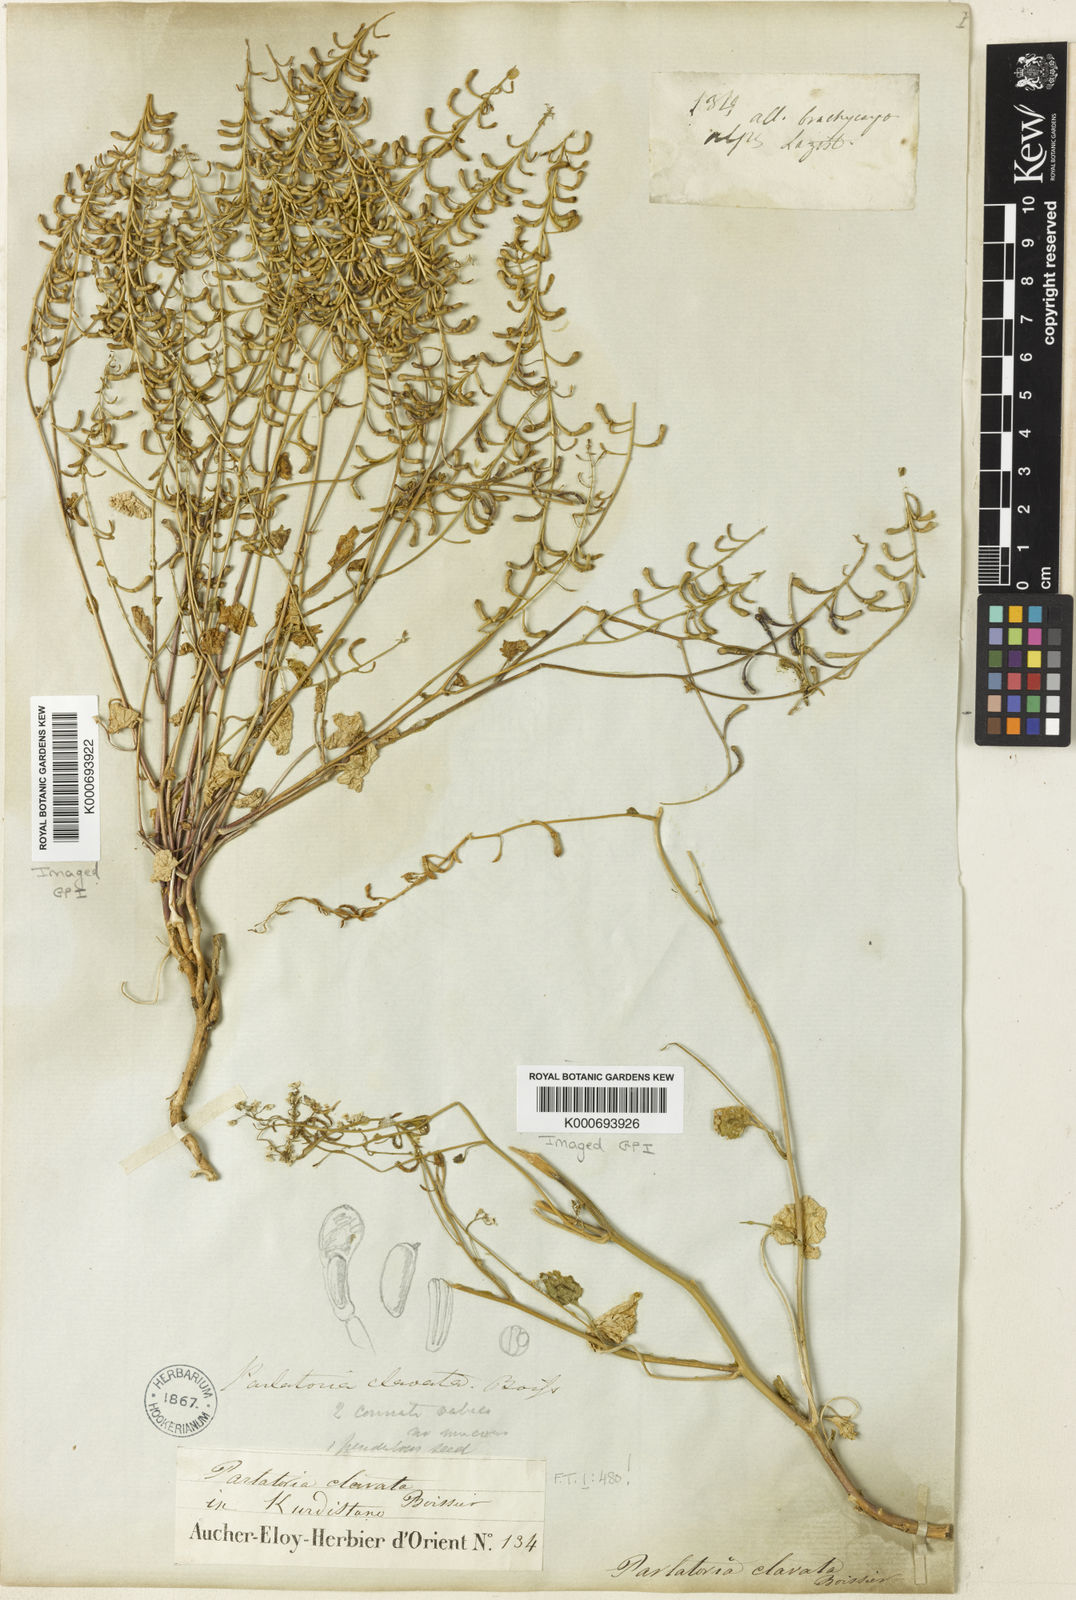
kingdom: Plantae
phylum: Tracheophyta
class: Magnoliopsida
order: Brassicales
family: Brassicaceae
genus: Sobolewskia
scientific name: Sobolewskia clavata
